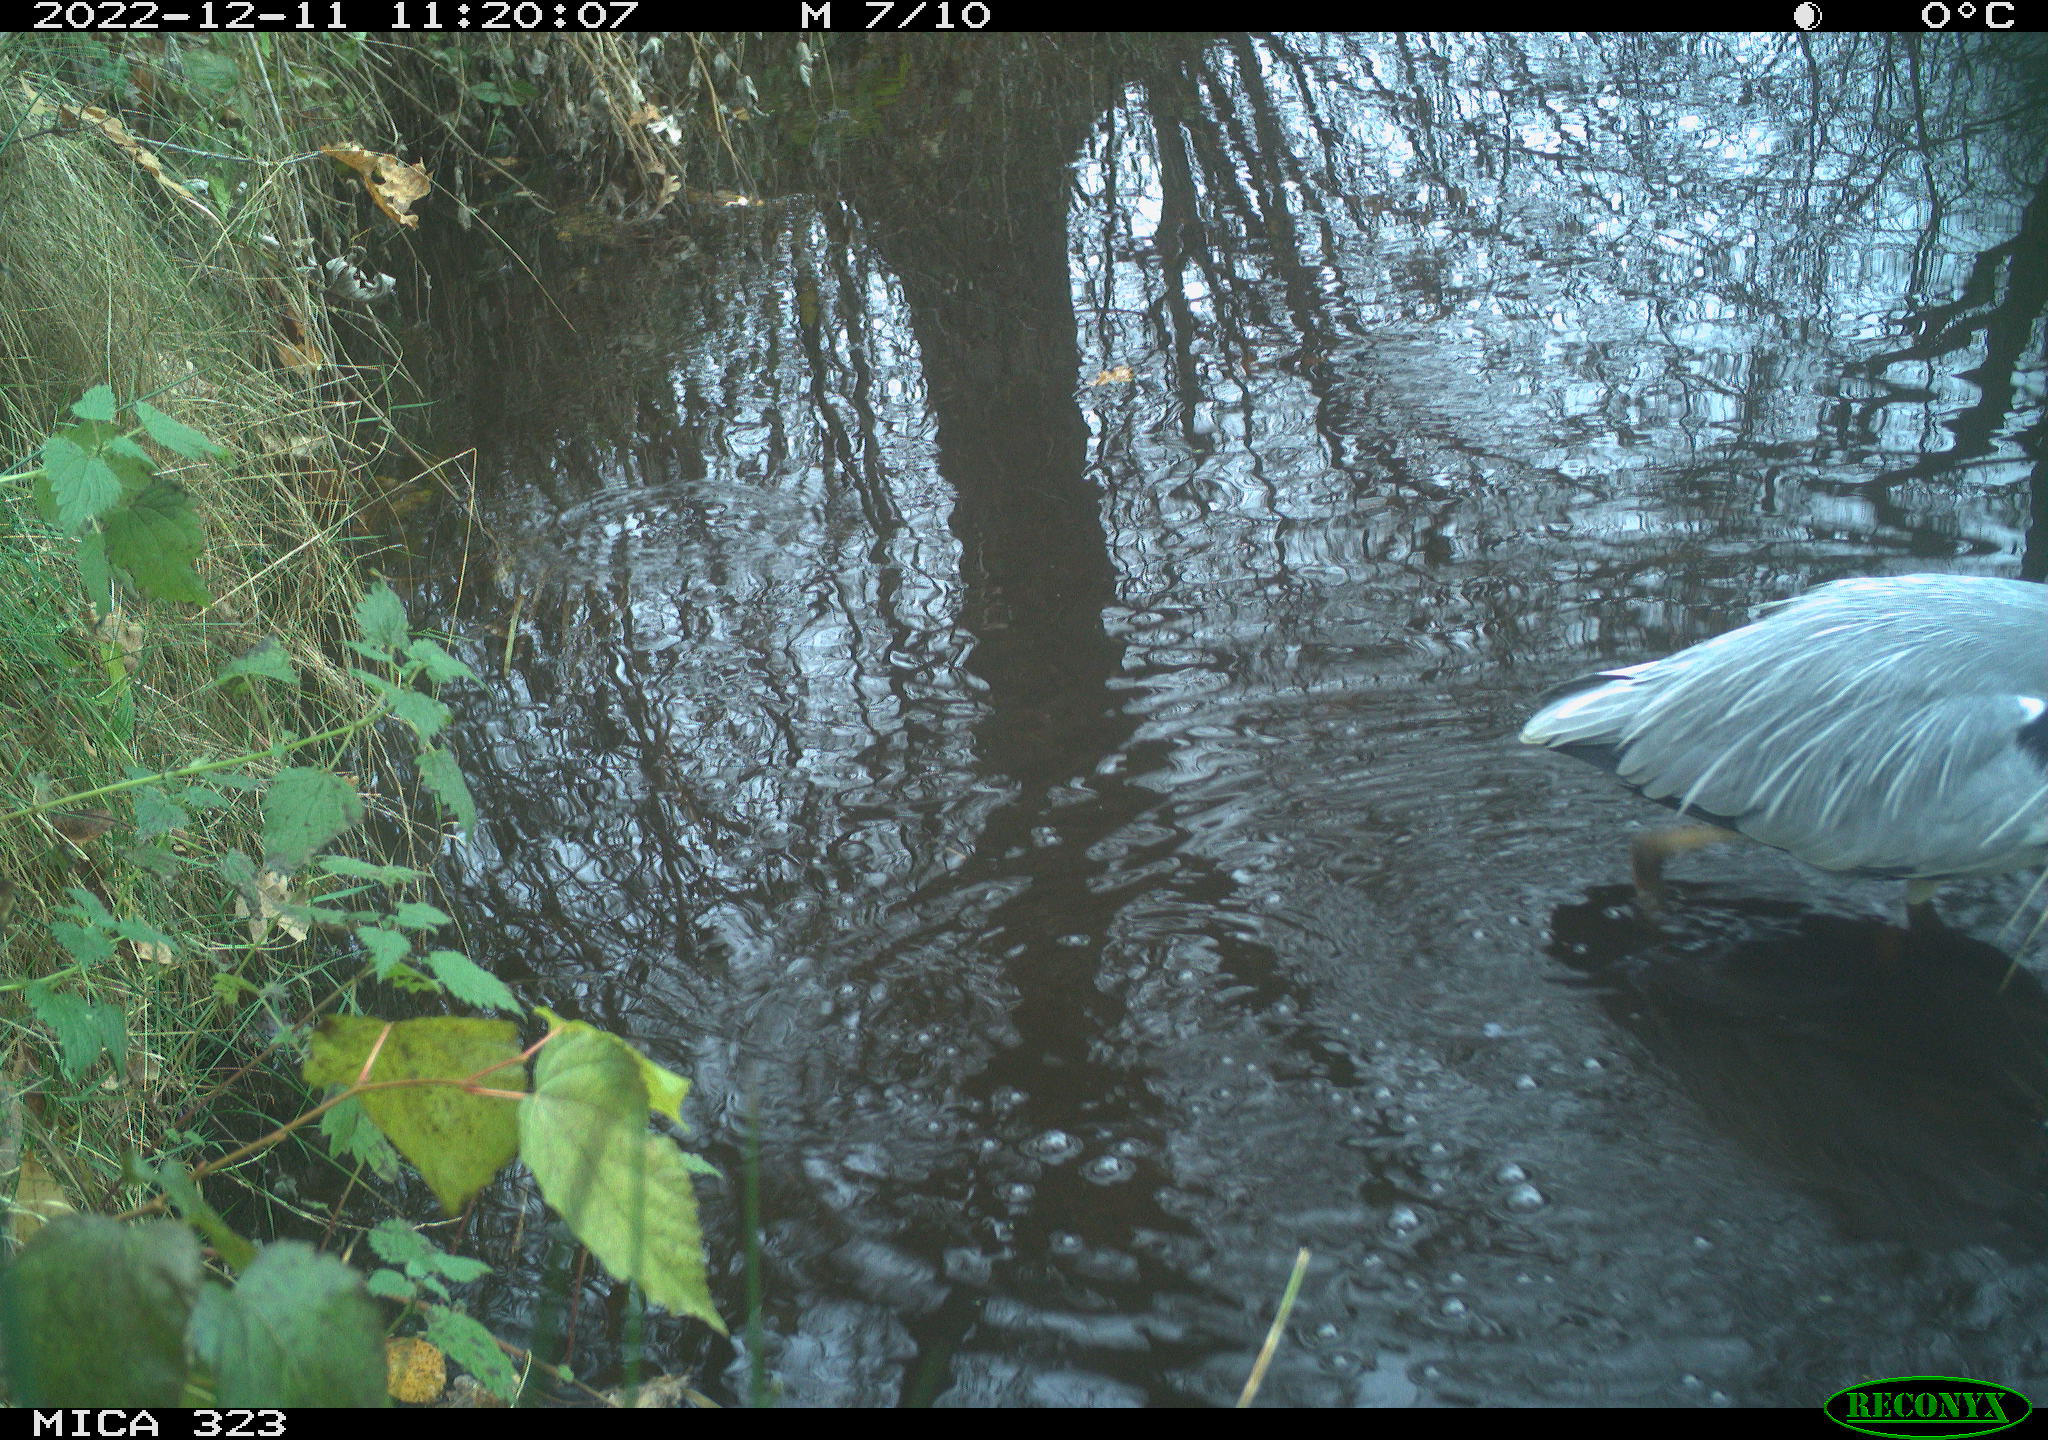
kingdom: Animalia
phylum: Chordata
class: Aves
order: Pelecaniformes
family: Ardeidae
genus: Ardea
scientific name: Ardea cinerea
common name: Grey heron
